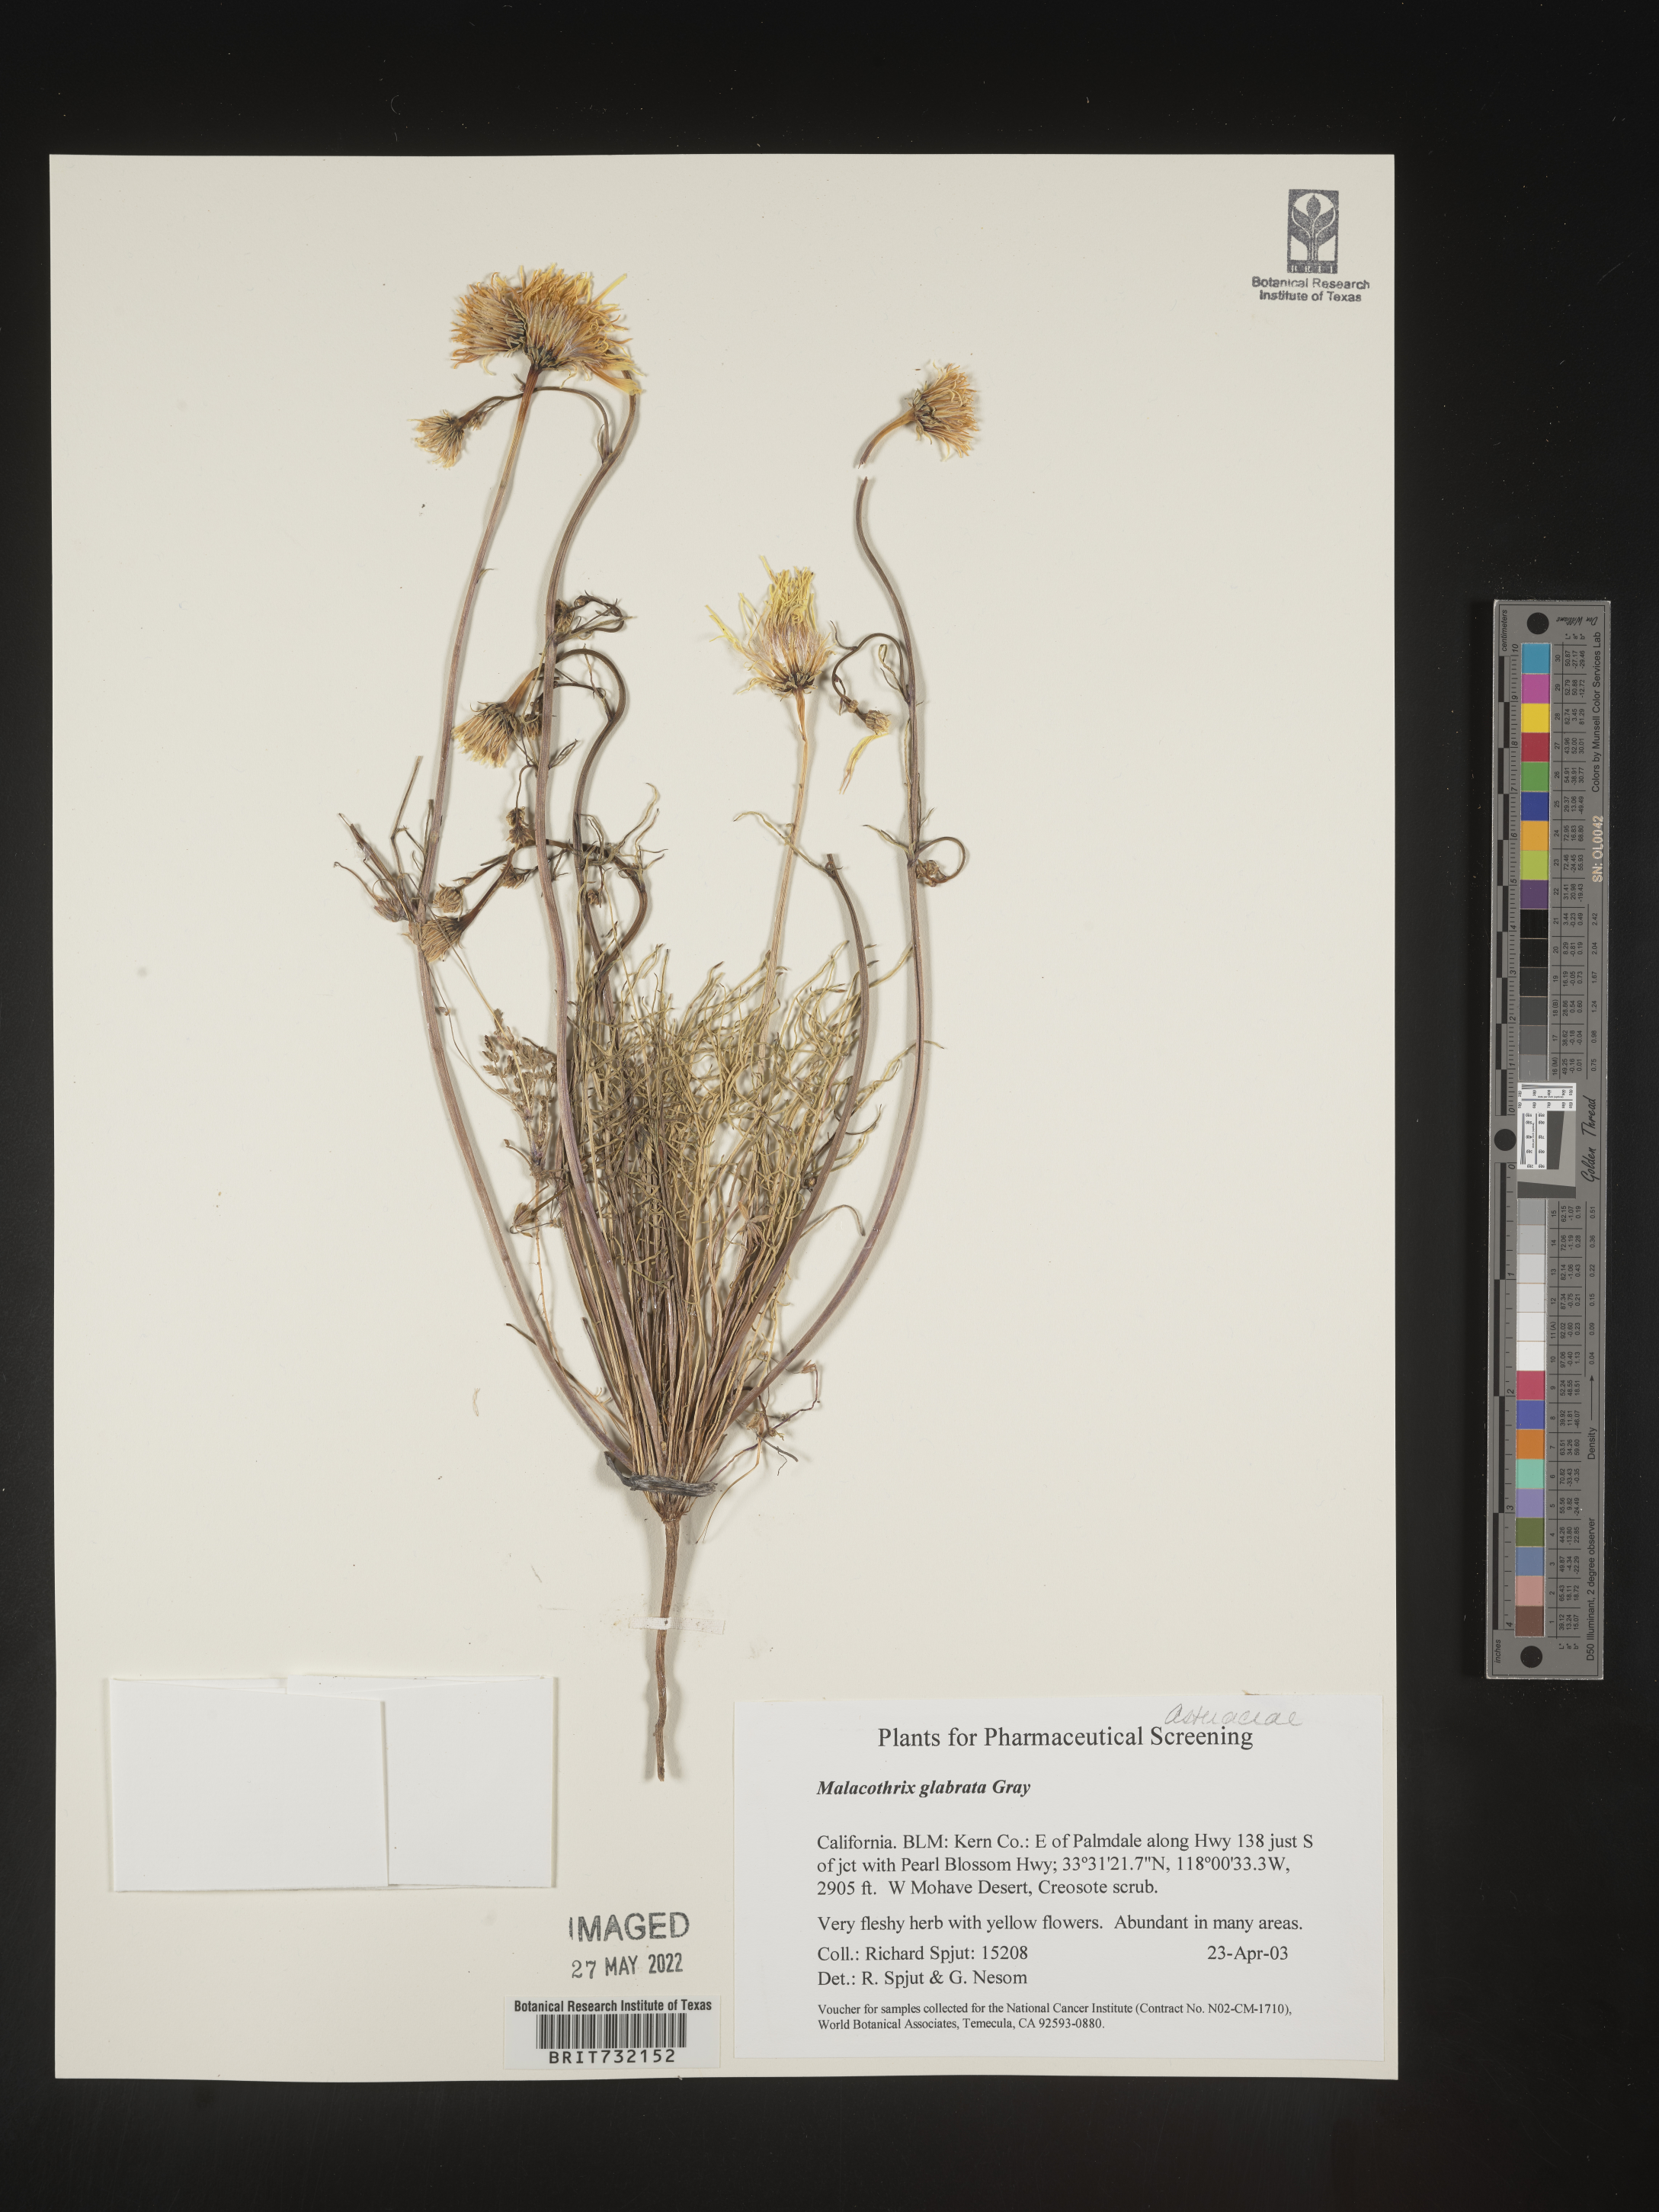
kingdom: Plantae
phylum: Tracheophyta
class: Magnoliopsida
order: Asterales
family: Asteraceae
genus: Malacothrix
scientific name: Malacothrix glabrata
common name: Smooth desert-dandelion
